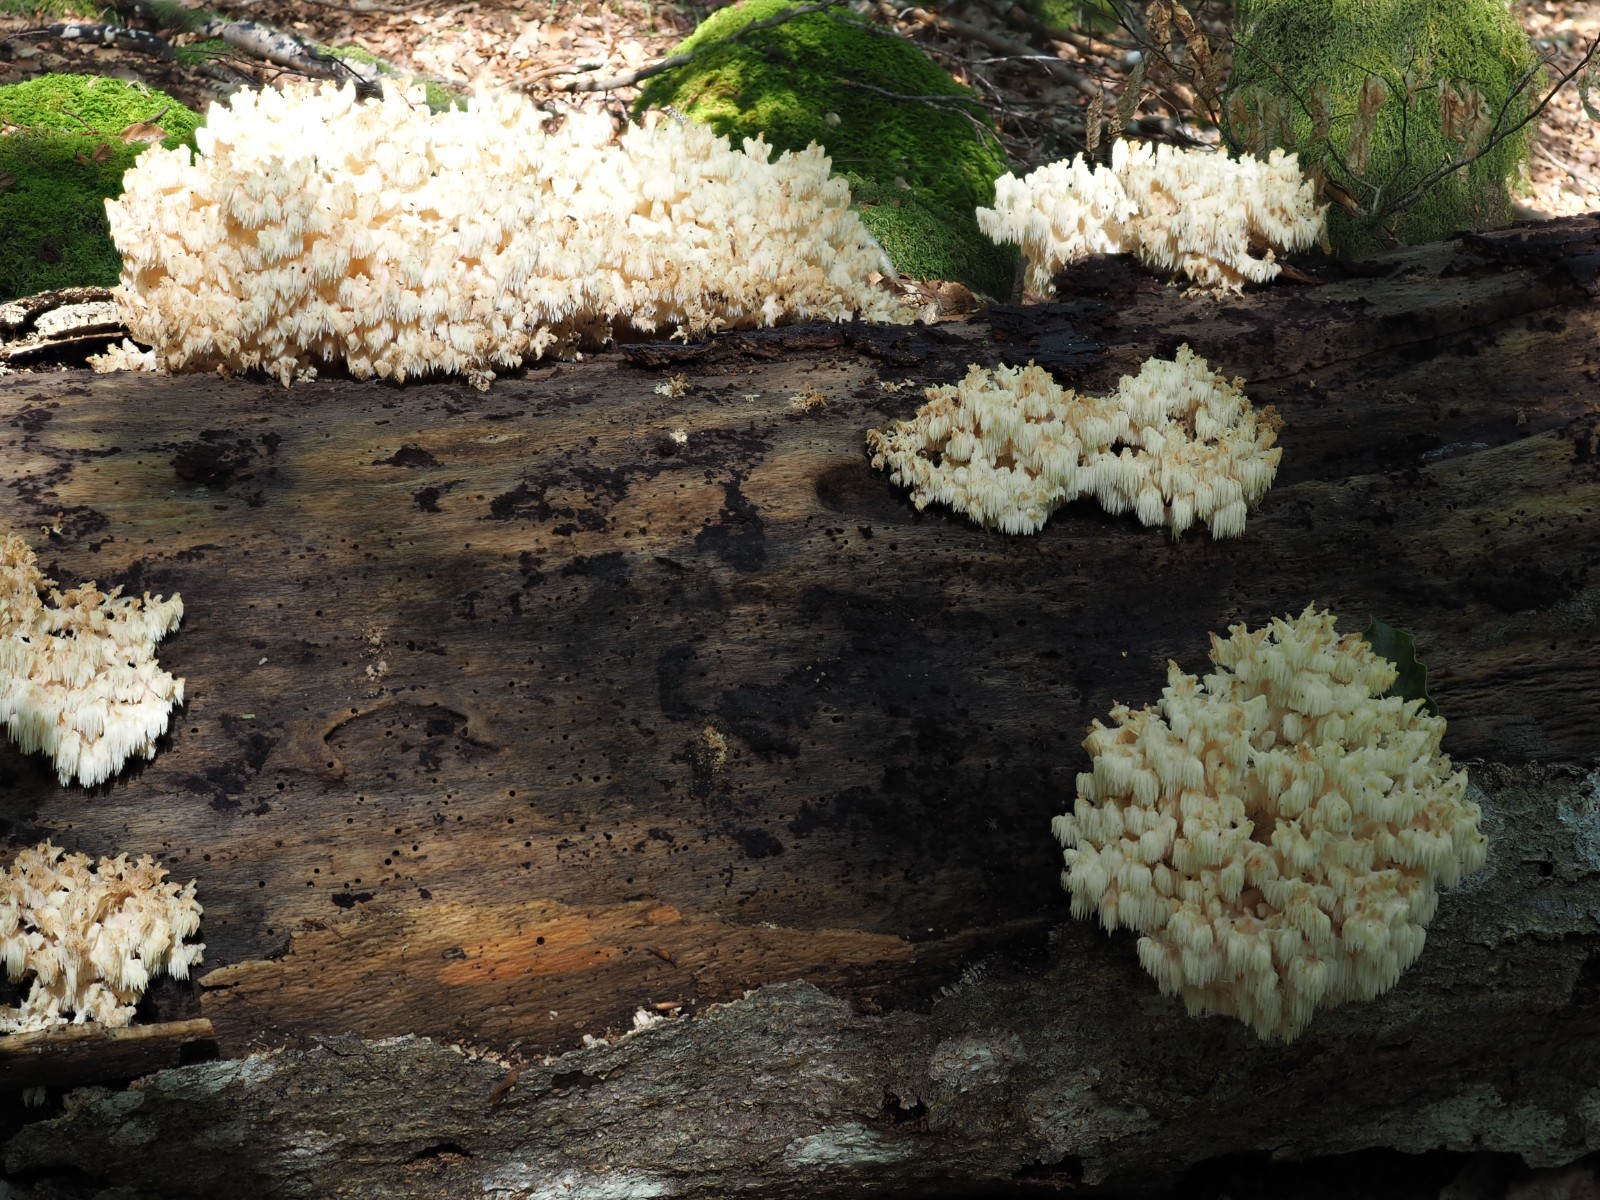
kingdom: Fungi
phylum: Basidiomycota
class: Agaricomycetes
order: Russulales
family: Hericiaceae
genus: Hericium
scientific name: Hericium coralloides
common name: koralpigsvamp
